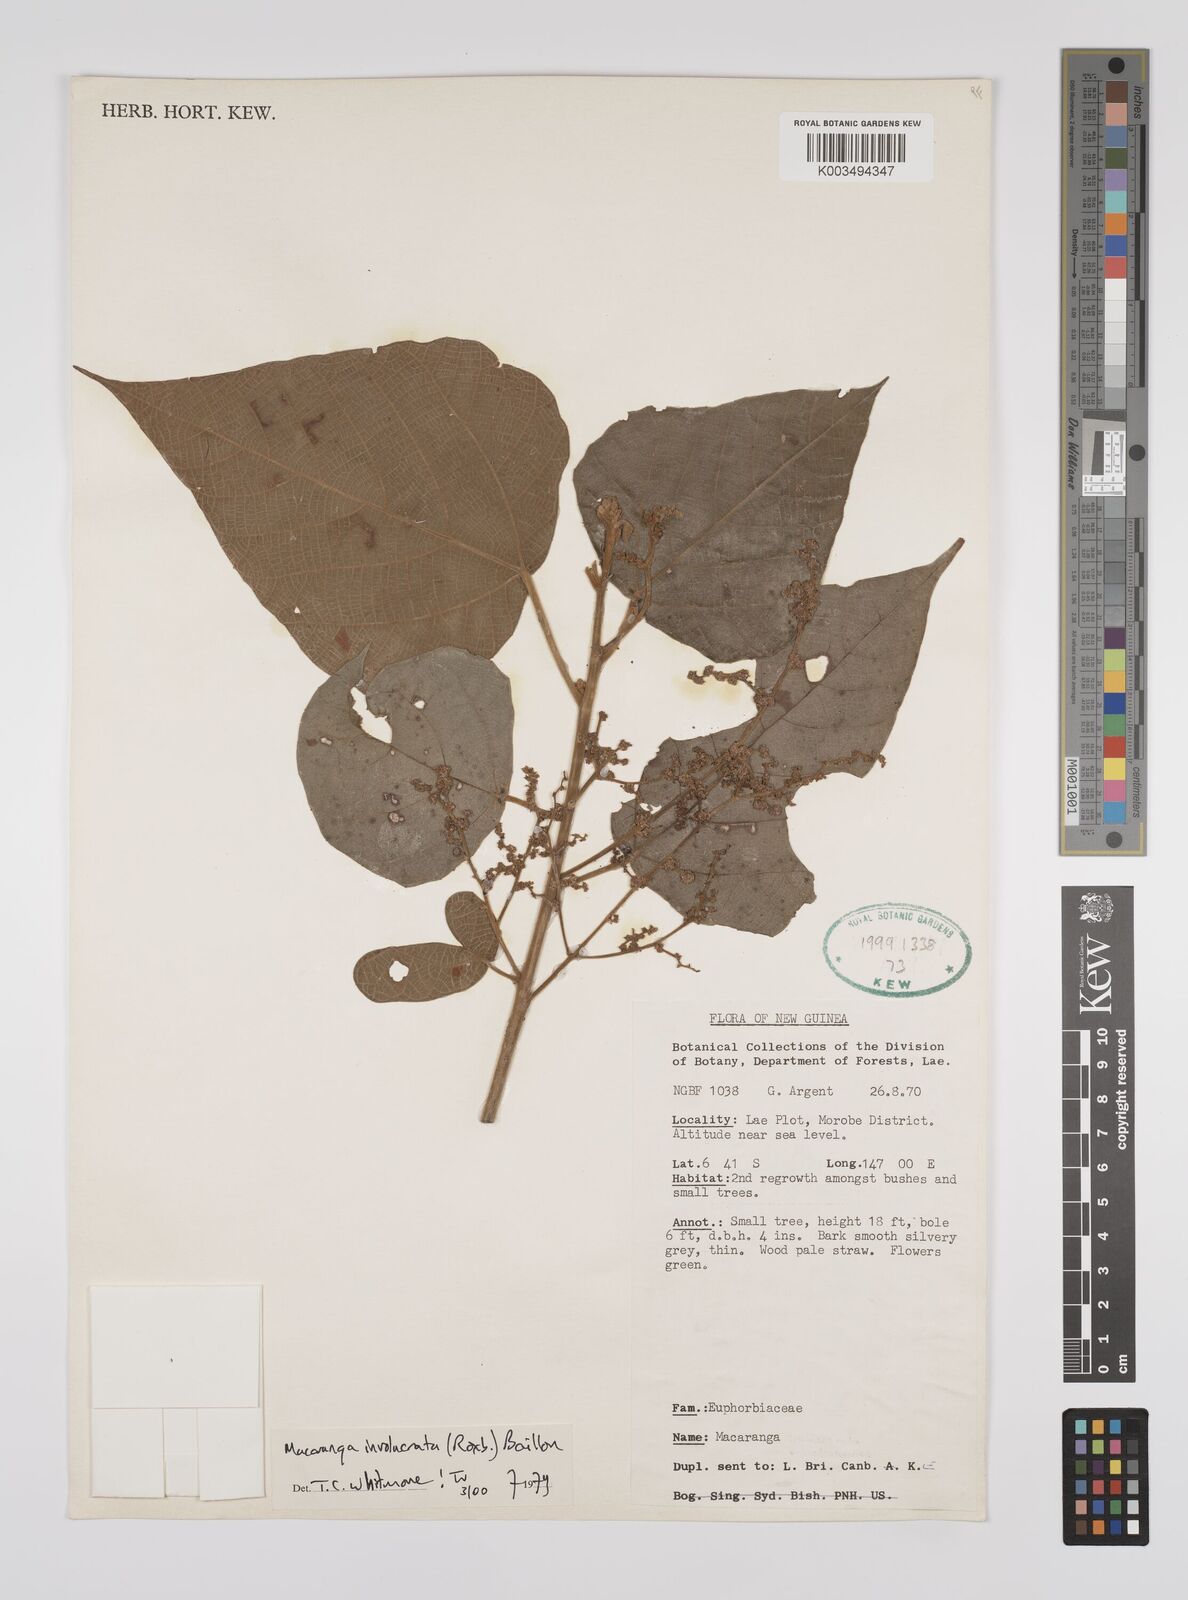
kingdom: Plantae
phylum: Tracheophyta
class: Magnoliopsida
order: Malpighiales
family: Euphorbiaceae
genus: Macaranga
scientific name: Macaranga involucrata
